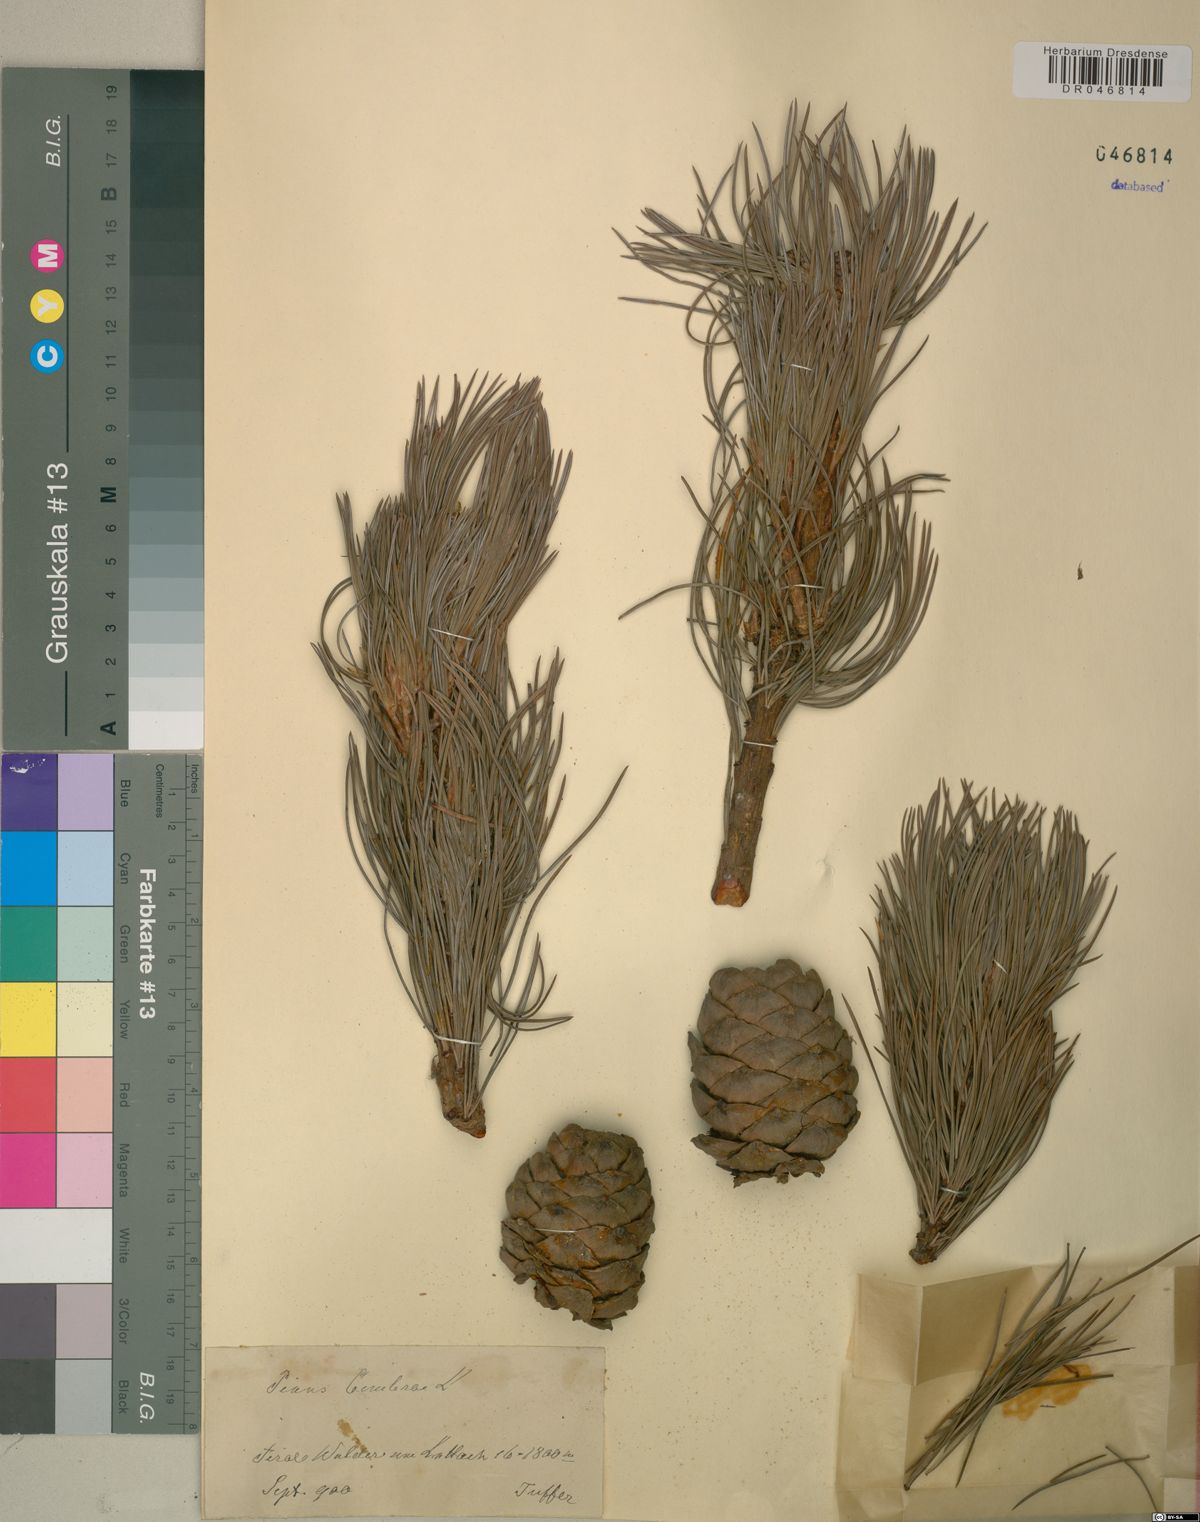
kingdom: Plantae
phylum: Tracheophyta
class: Pinopsida
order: Pinales
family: Pinaceae
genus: Pinus
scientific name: Pinus cembra
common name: Arolla pine
